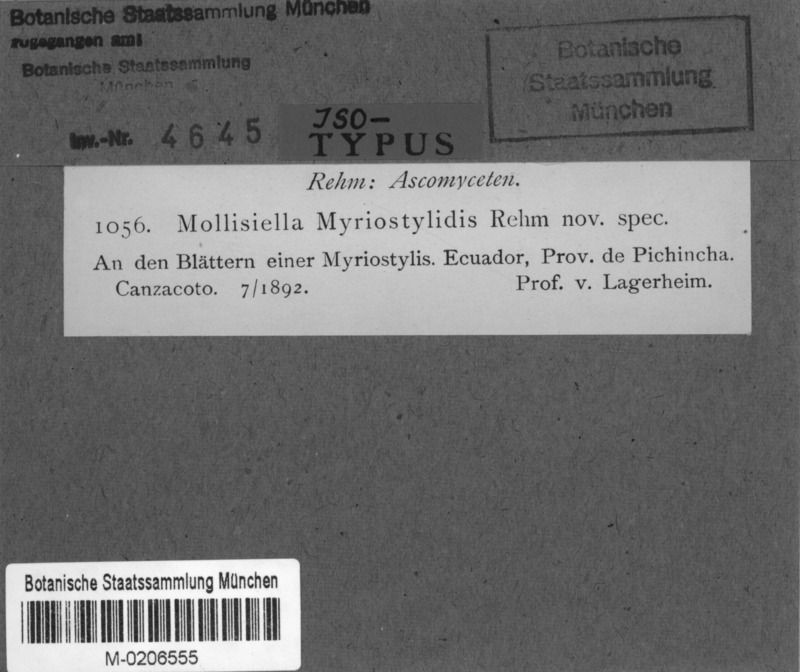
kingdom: Fungi
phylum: Ascomycota
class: Leotiomycetes
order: Helotiales
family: Helotiaceae
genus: Parencoelia
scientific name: Parencoelia myriostylidis
